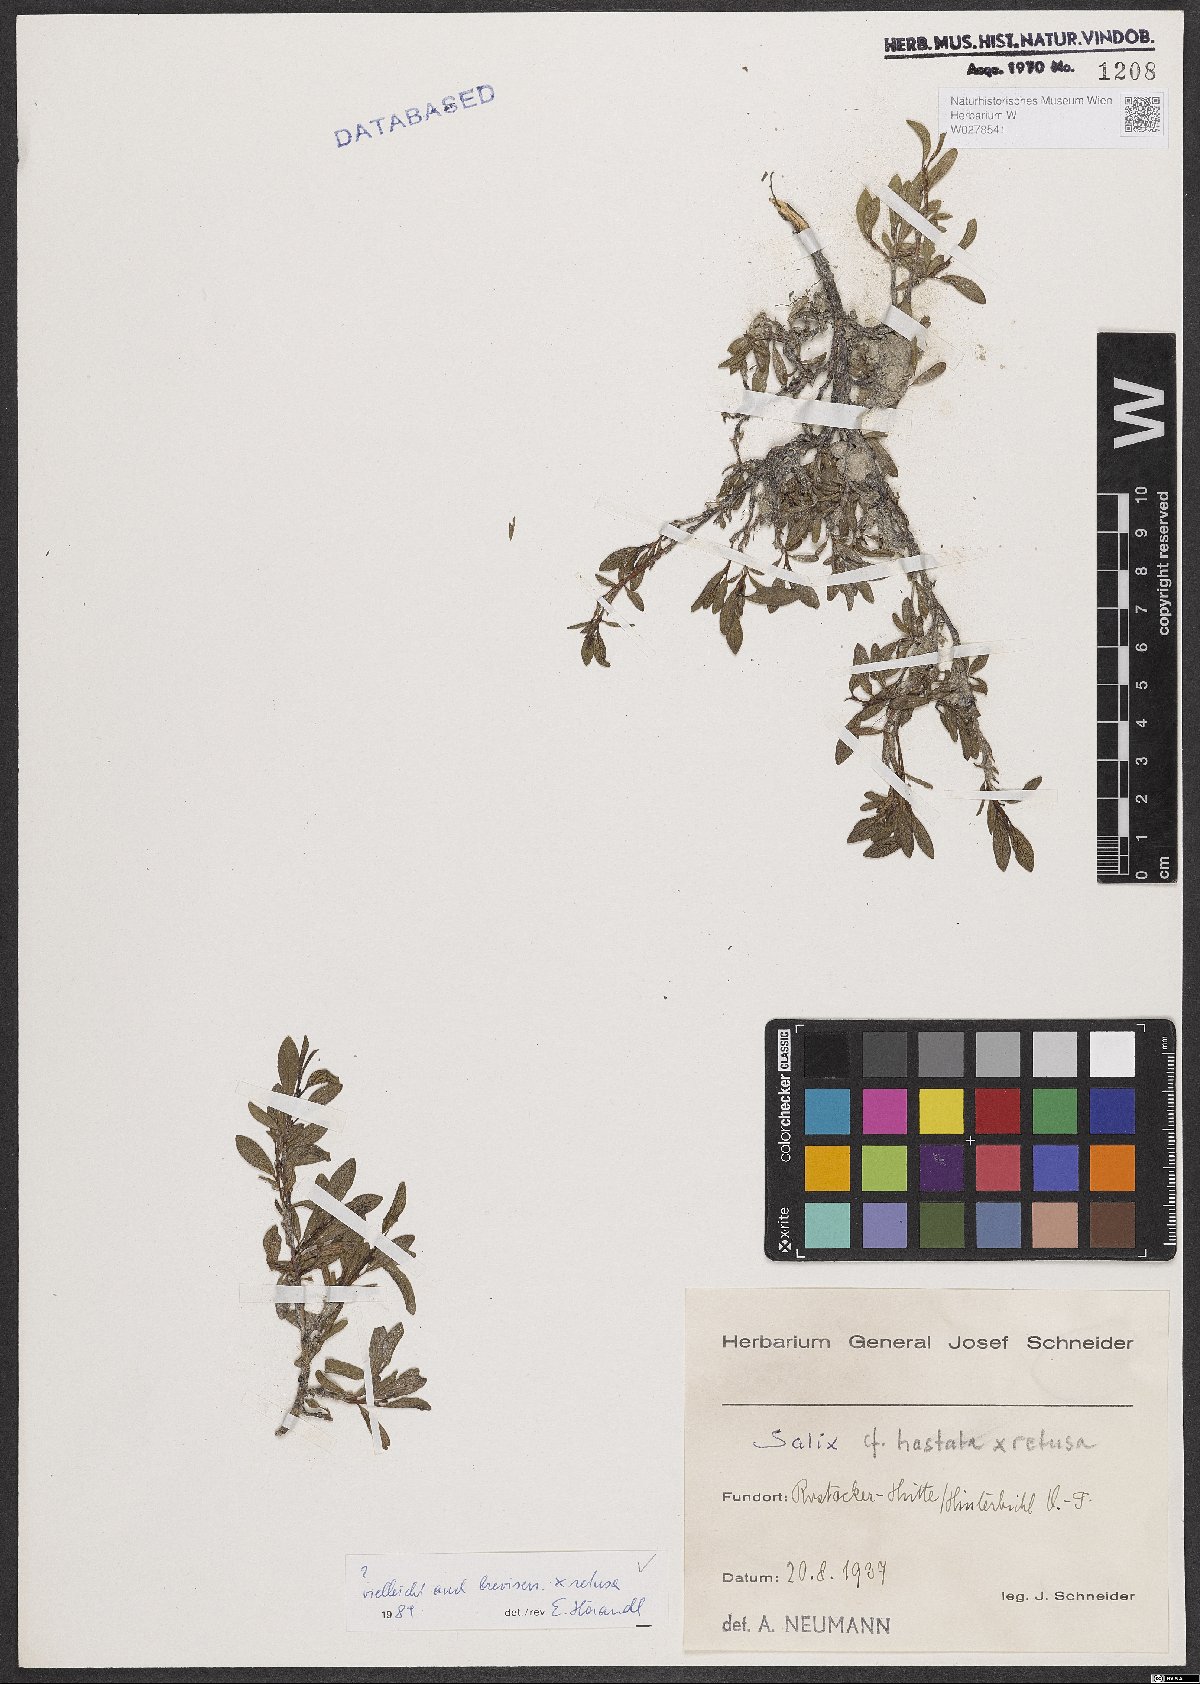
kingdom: Plantae
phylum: Tracheophyta
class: Magnoliopsida
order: Malpighiales
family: Salicaceae
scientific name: Salicaceae
